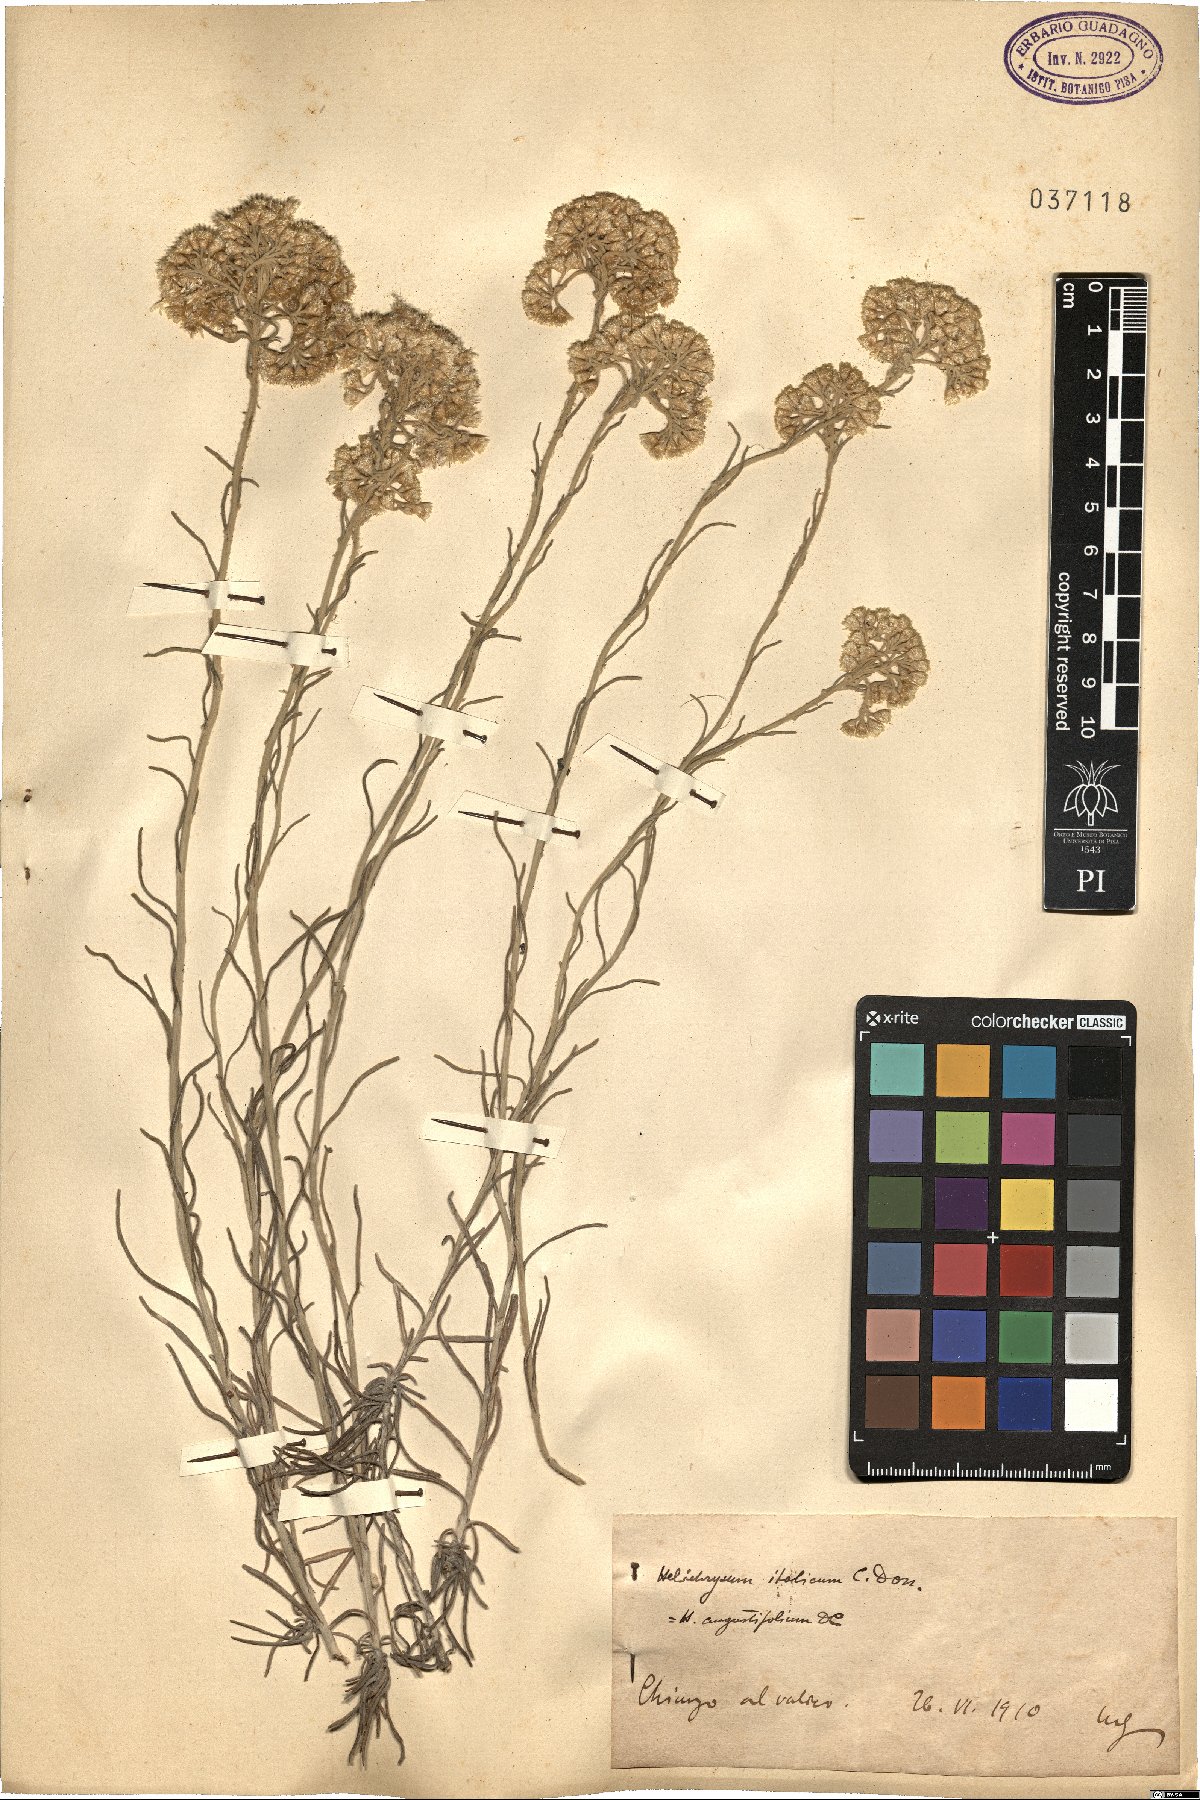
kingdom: Plantae
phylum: Tracheophyta
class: Magnoliopsida
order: Asterales
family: Asteraceae
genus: Helichrysum
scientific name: Helichrysum italicum
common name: Curryplant
